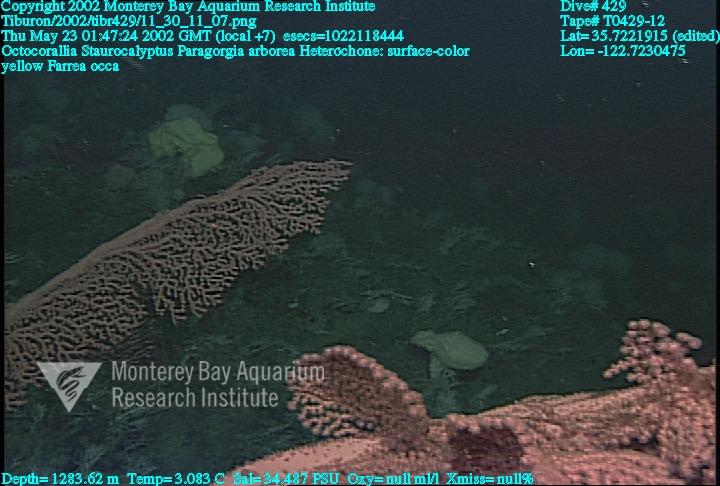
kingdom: Animalia
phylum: Porifera
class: Hexactinellida
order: Lyssacinosida
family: Rossellidae
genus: Staurocalyptus
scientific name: Staurocalyptus
